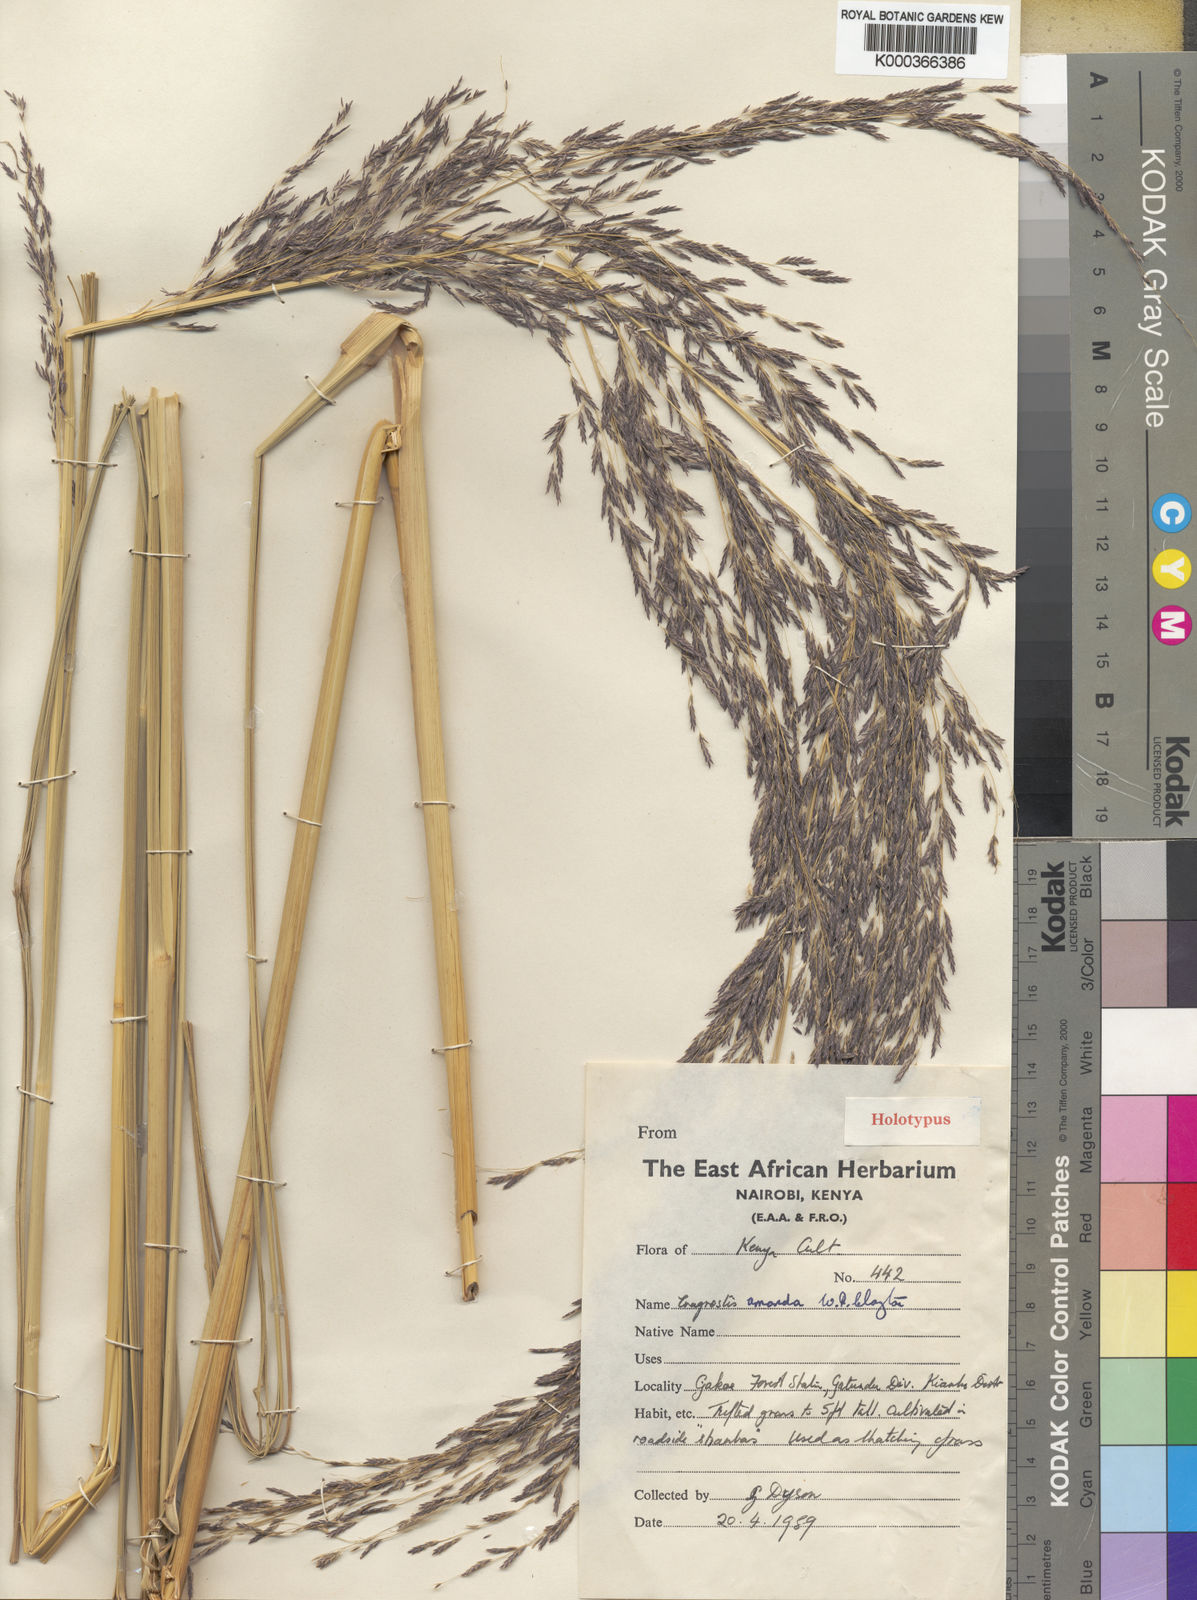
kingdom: Plantae
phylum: Tracheophyta
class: Liliopsida
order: Poales
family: Poaceae
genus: Eragrostis
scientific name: Eragrostis amanda
